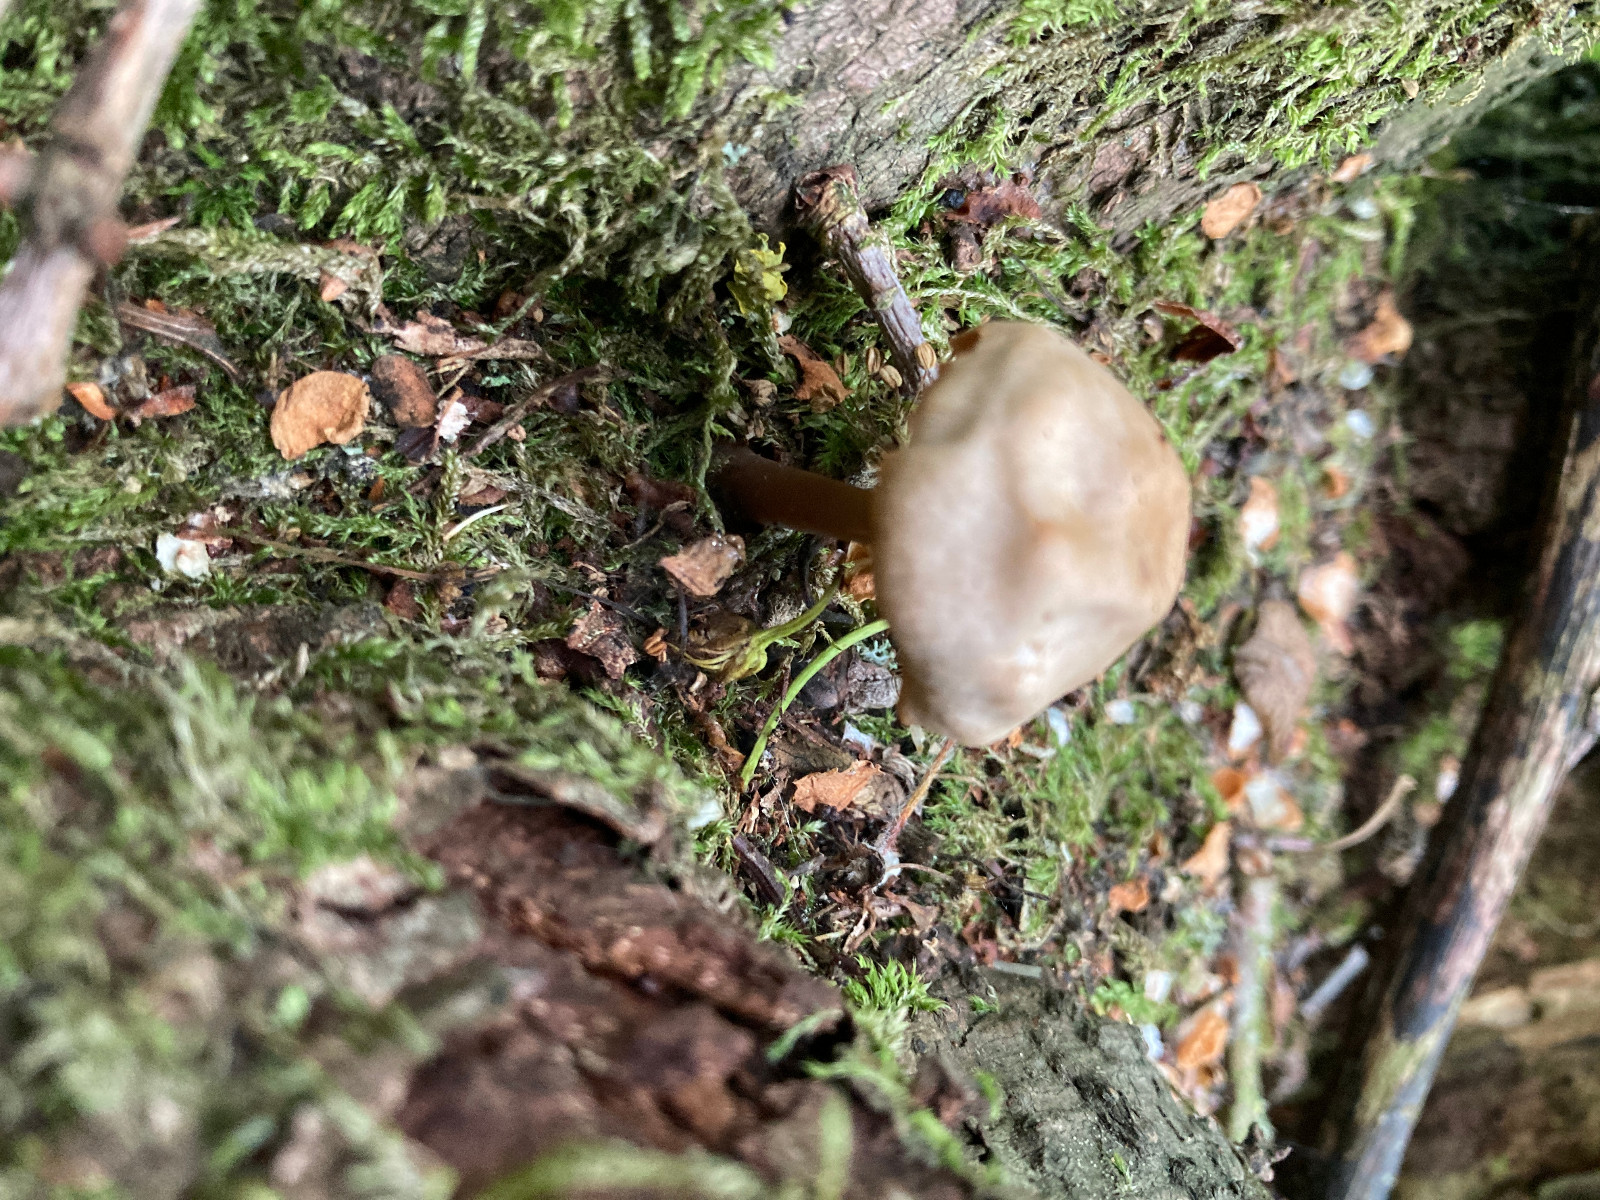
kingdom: Fungi
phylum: Basidiomycota
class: Agaricomycetes
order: Agaricales
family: Mycenaceae
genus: Mycena
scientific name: Mycena galericulata
